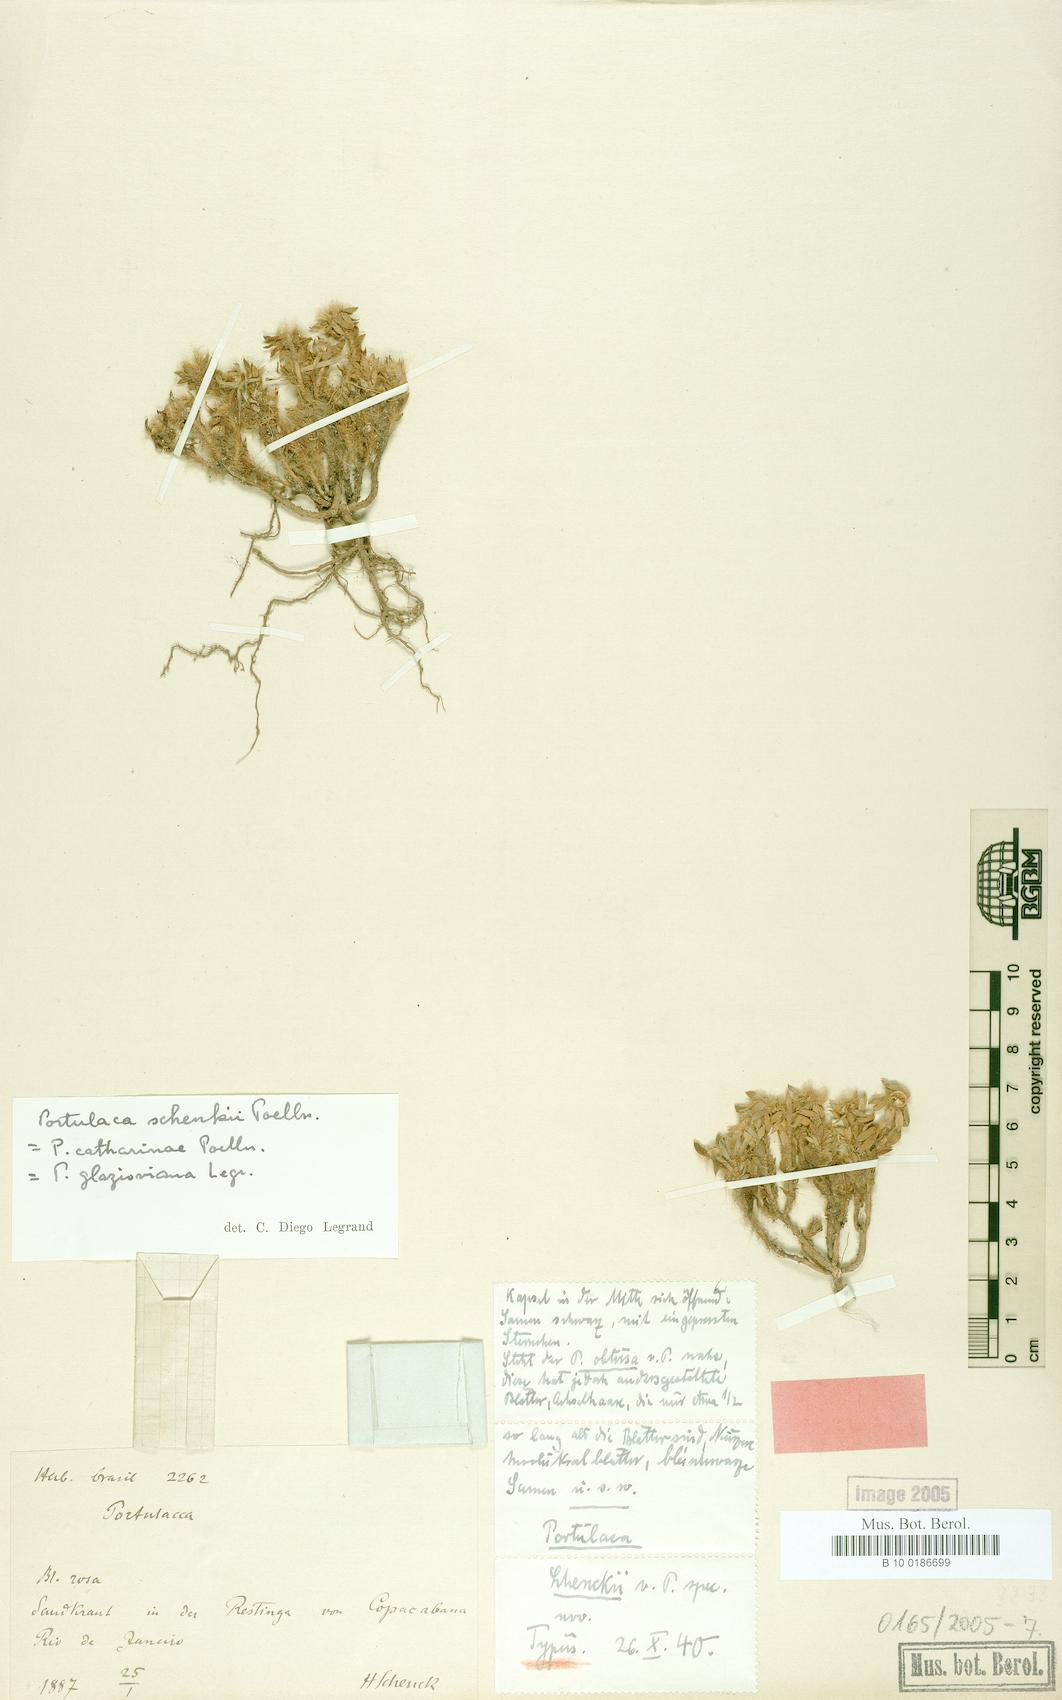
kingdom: Plantae
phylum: Tracheophyta
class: Magnoliopsida
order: Caryophyllales
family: Portulacaceae
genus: Portulaca
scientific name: Portulaca amilis
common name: Paraguayan purslane
